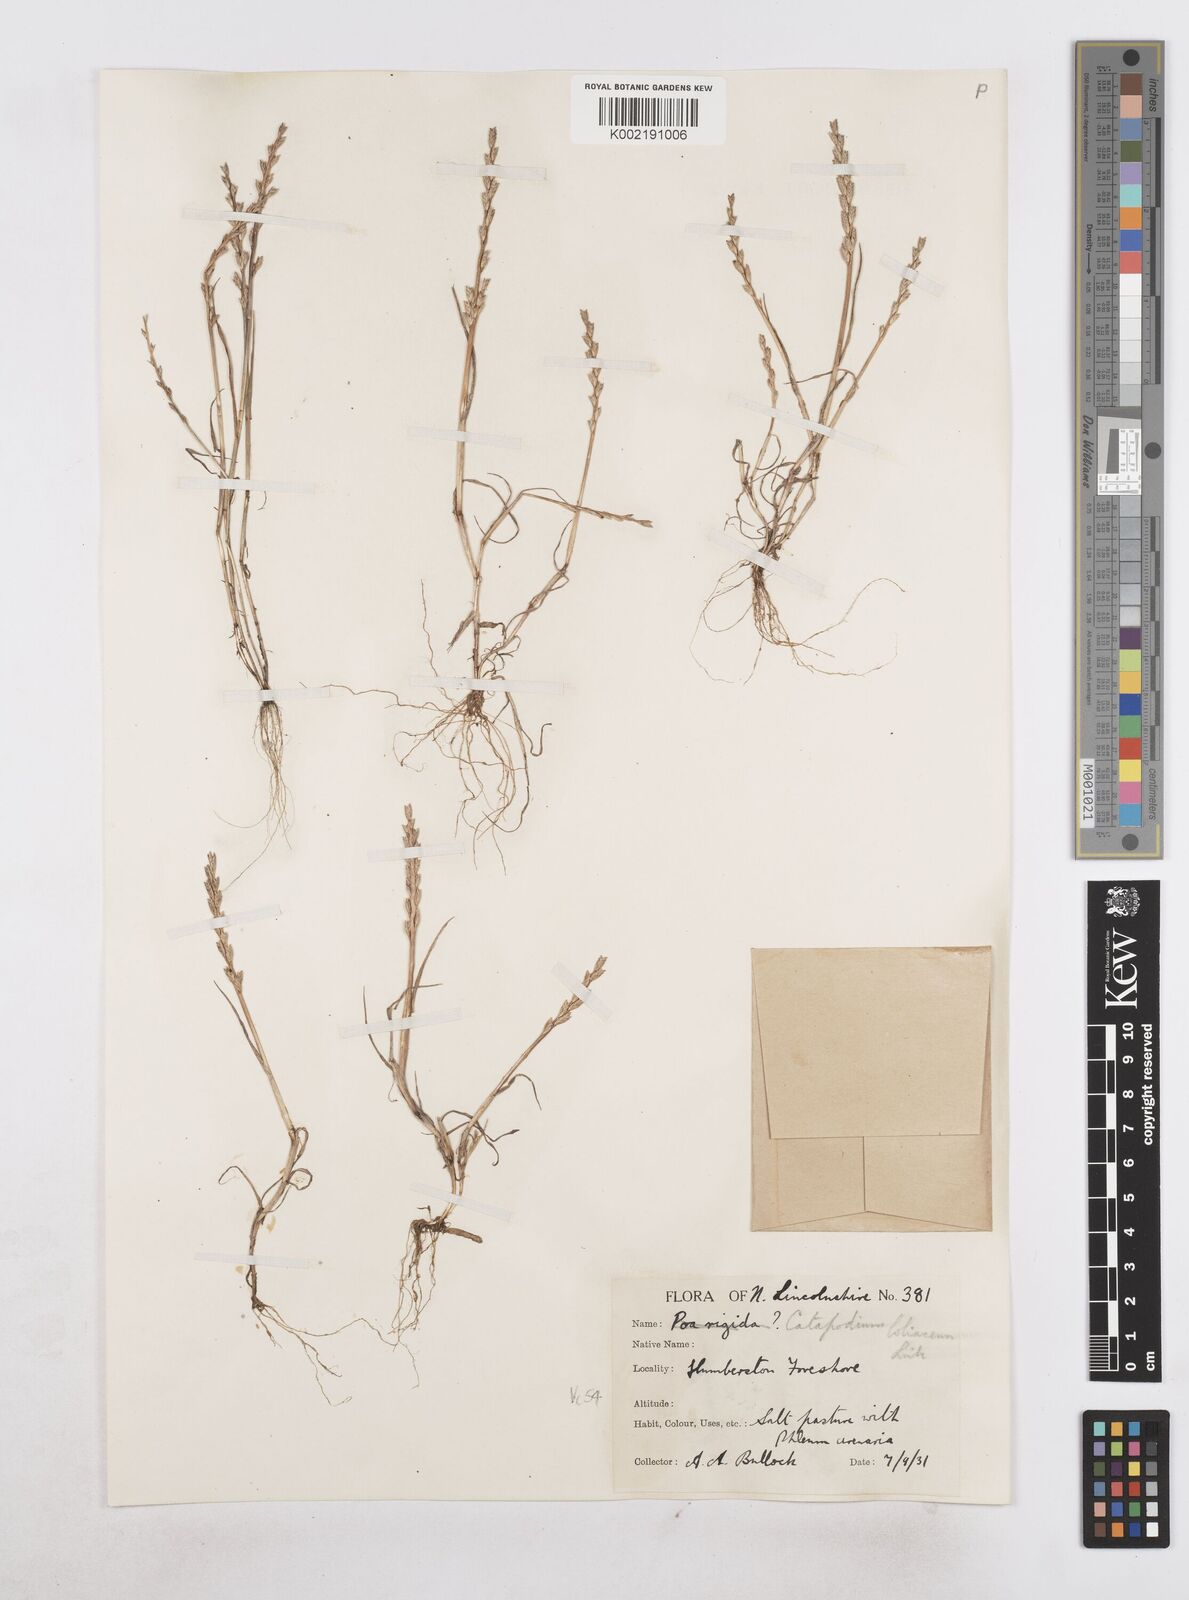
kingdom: Plantae
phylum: Tracheophyta
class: Liliopsida
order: Poales
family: Poaceae
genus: Catapodium
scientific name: Catapodium marinum
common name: Sea fern-grass
